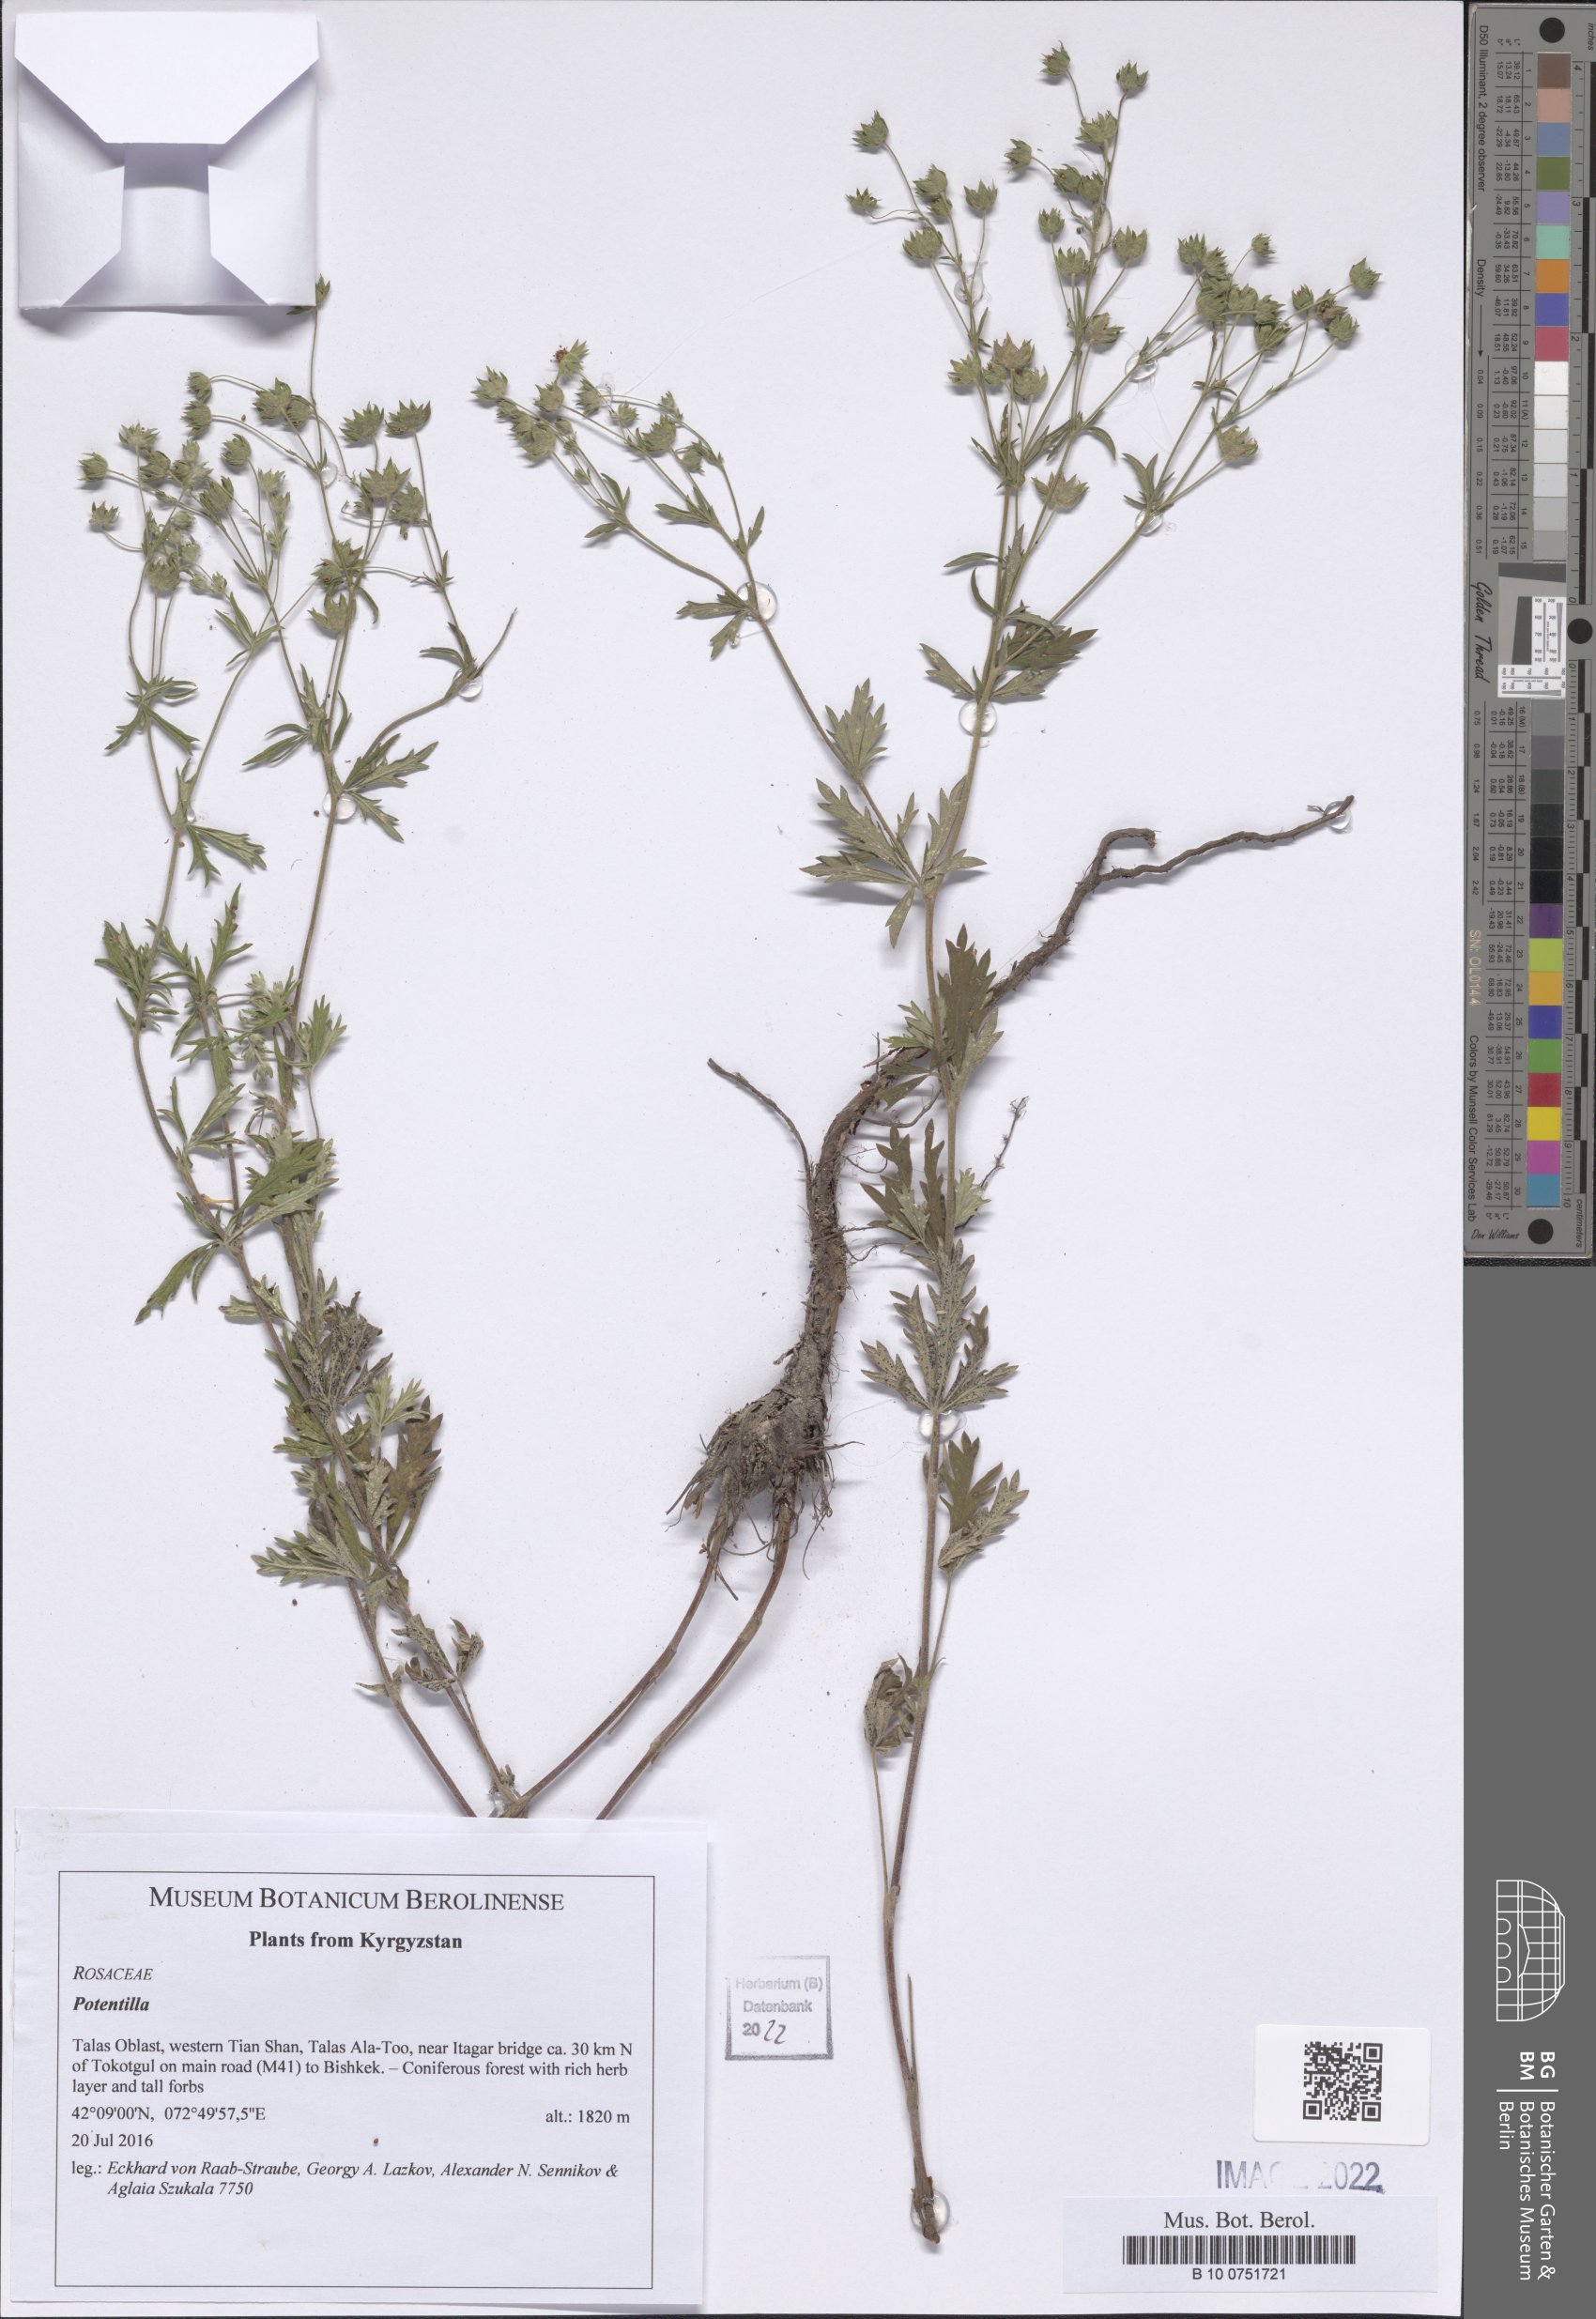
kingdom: Plantae
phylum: Tracheophyta
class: Magnoliopsida
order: Rosales
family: Rosaceae
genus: Potentilla
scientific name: Potentilla
